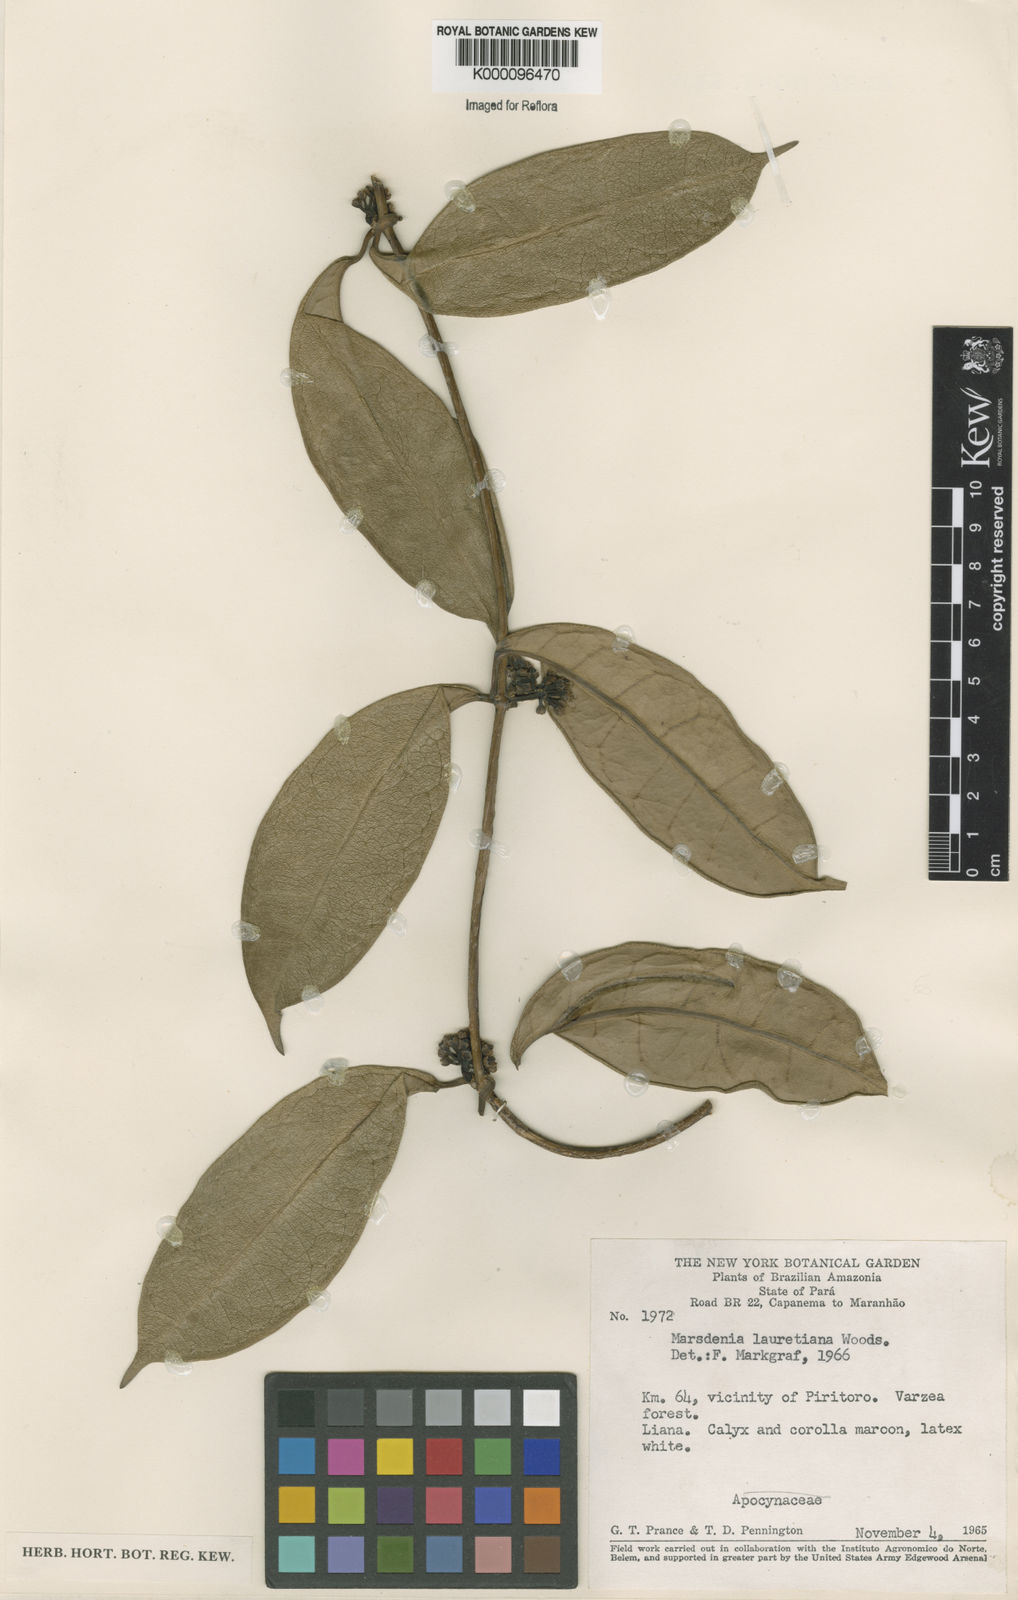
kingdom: Plantae
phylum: Tracheophyta
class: Magnoliopsida
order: Gentianales
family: Apocynaceae
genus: Ruehssia
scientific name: Ruehssia lauretiana
